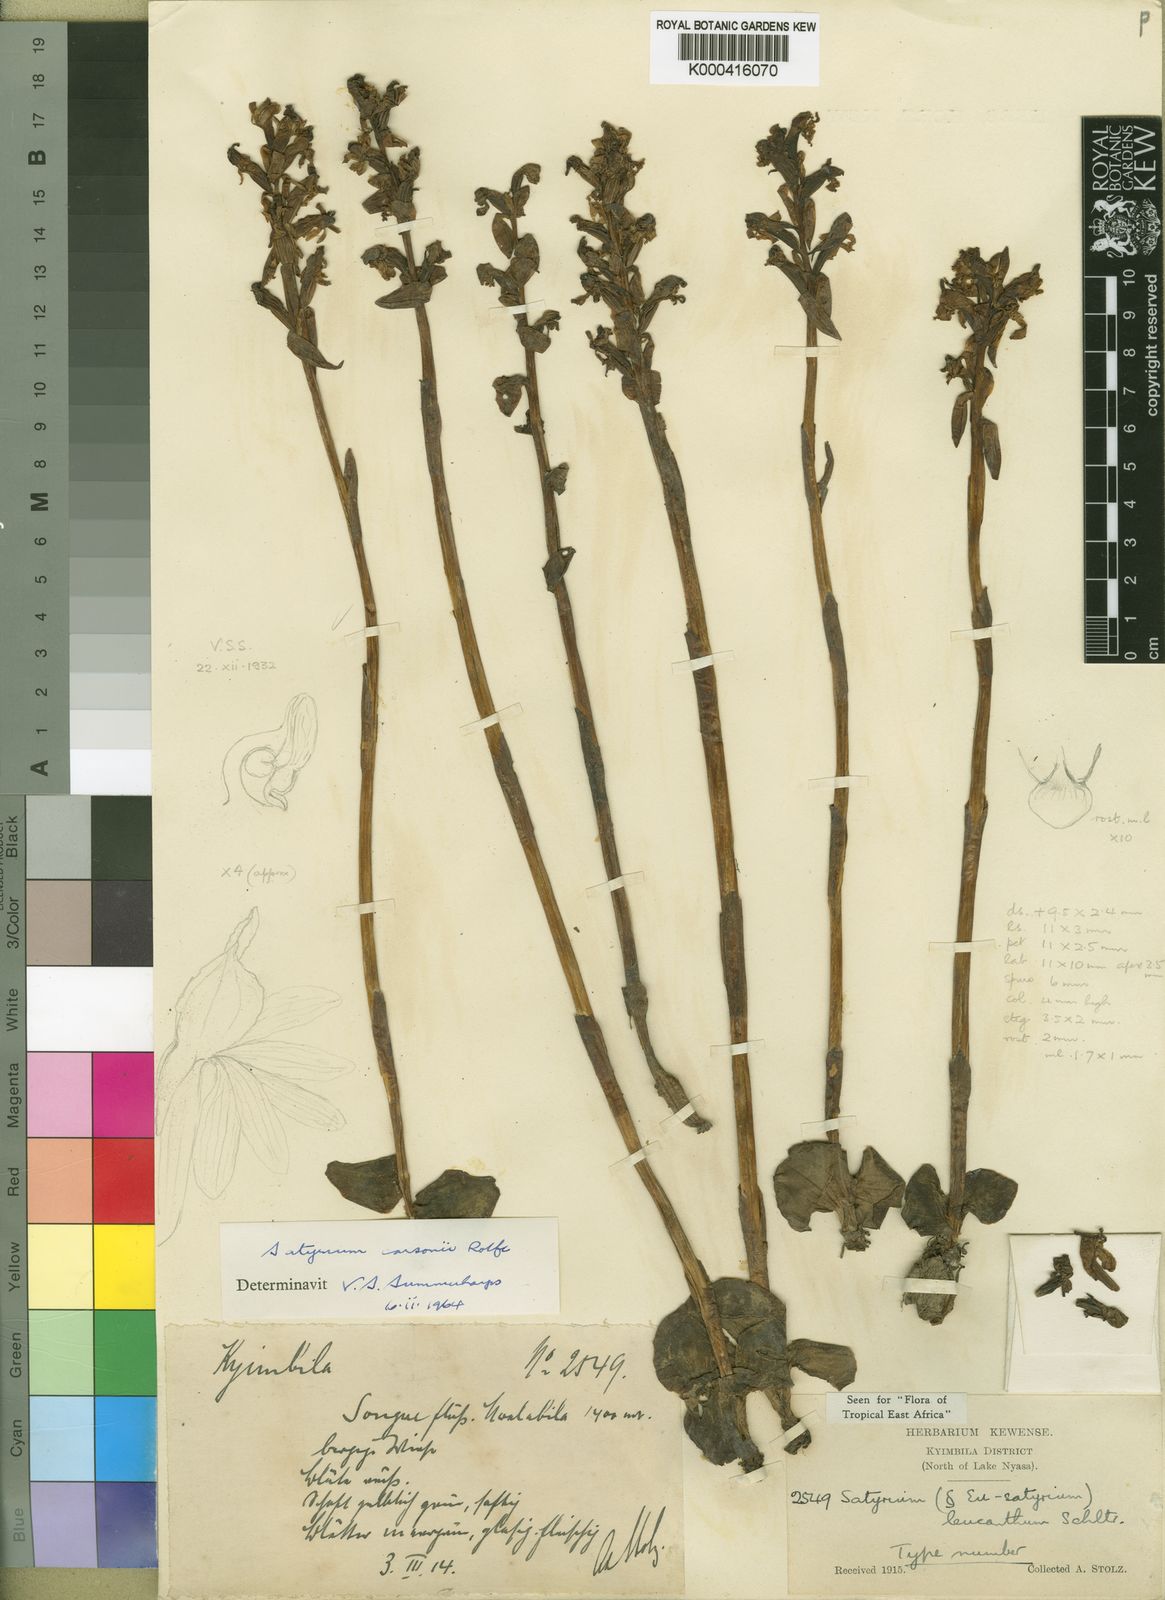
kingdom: Plantae
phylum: Tracheophyta
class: Liliopsida
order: Asparagales
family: Orchidaceae
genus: Satyrium
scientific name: Satyrium carsonii
